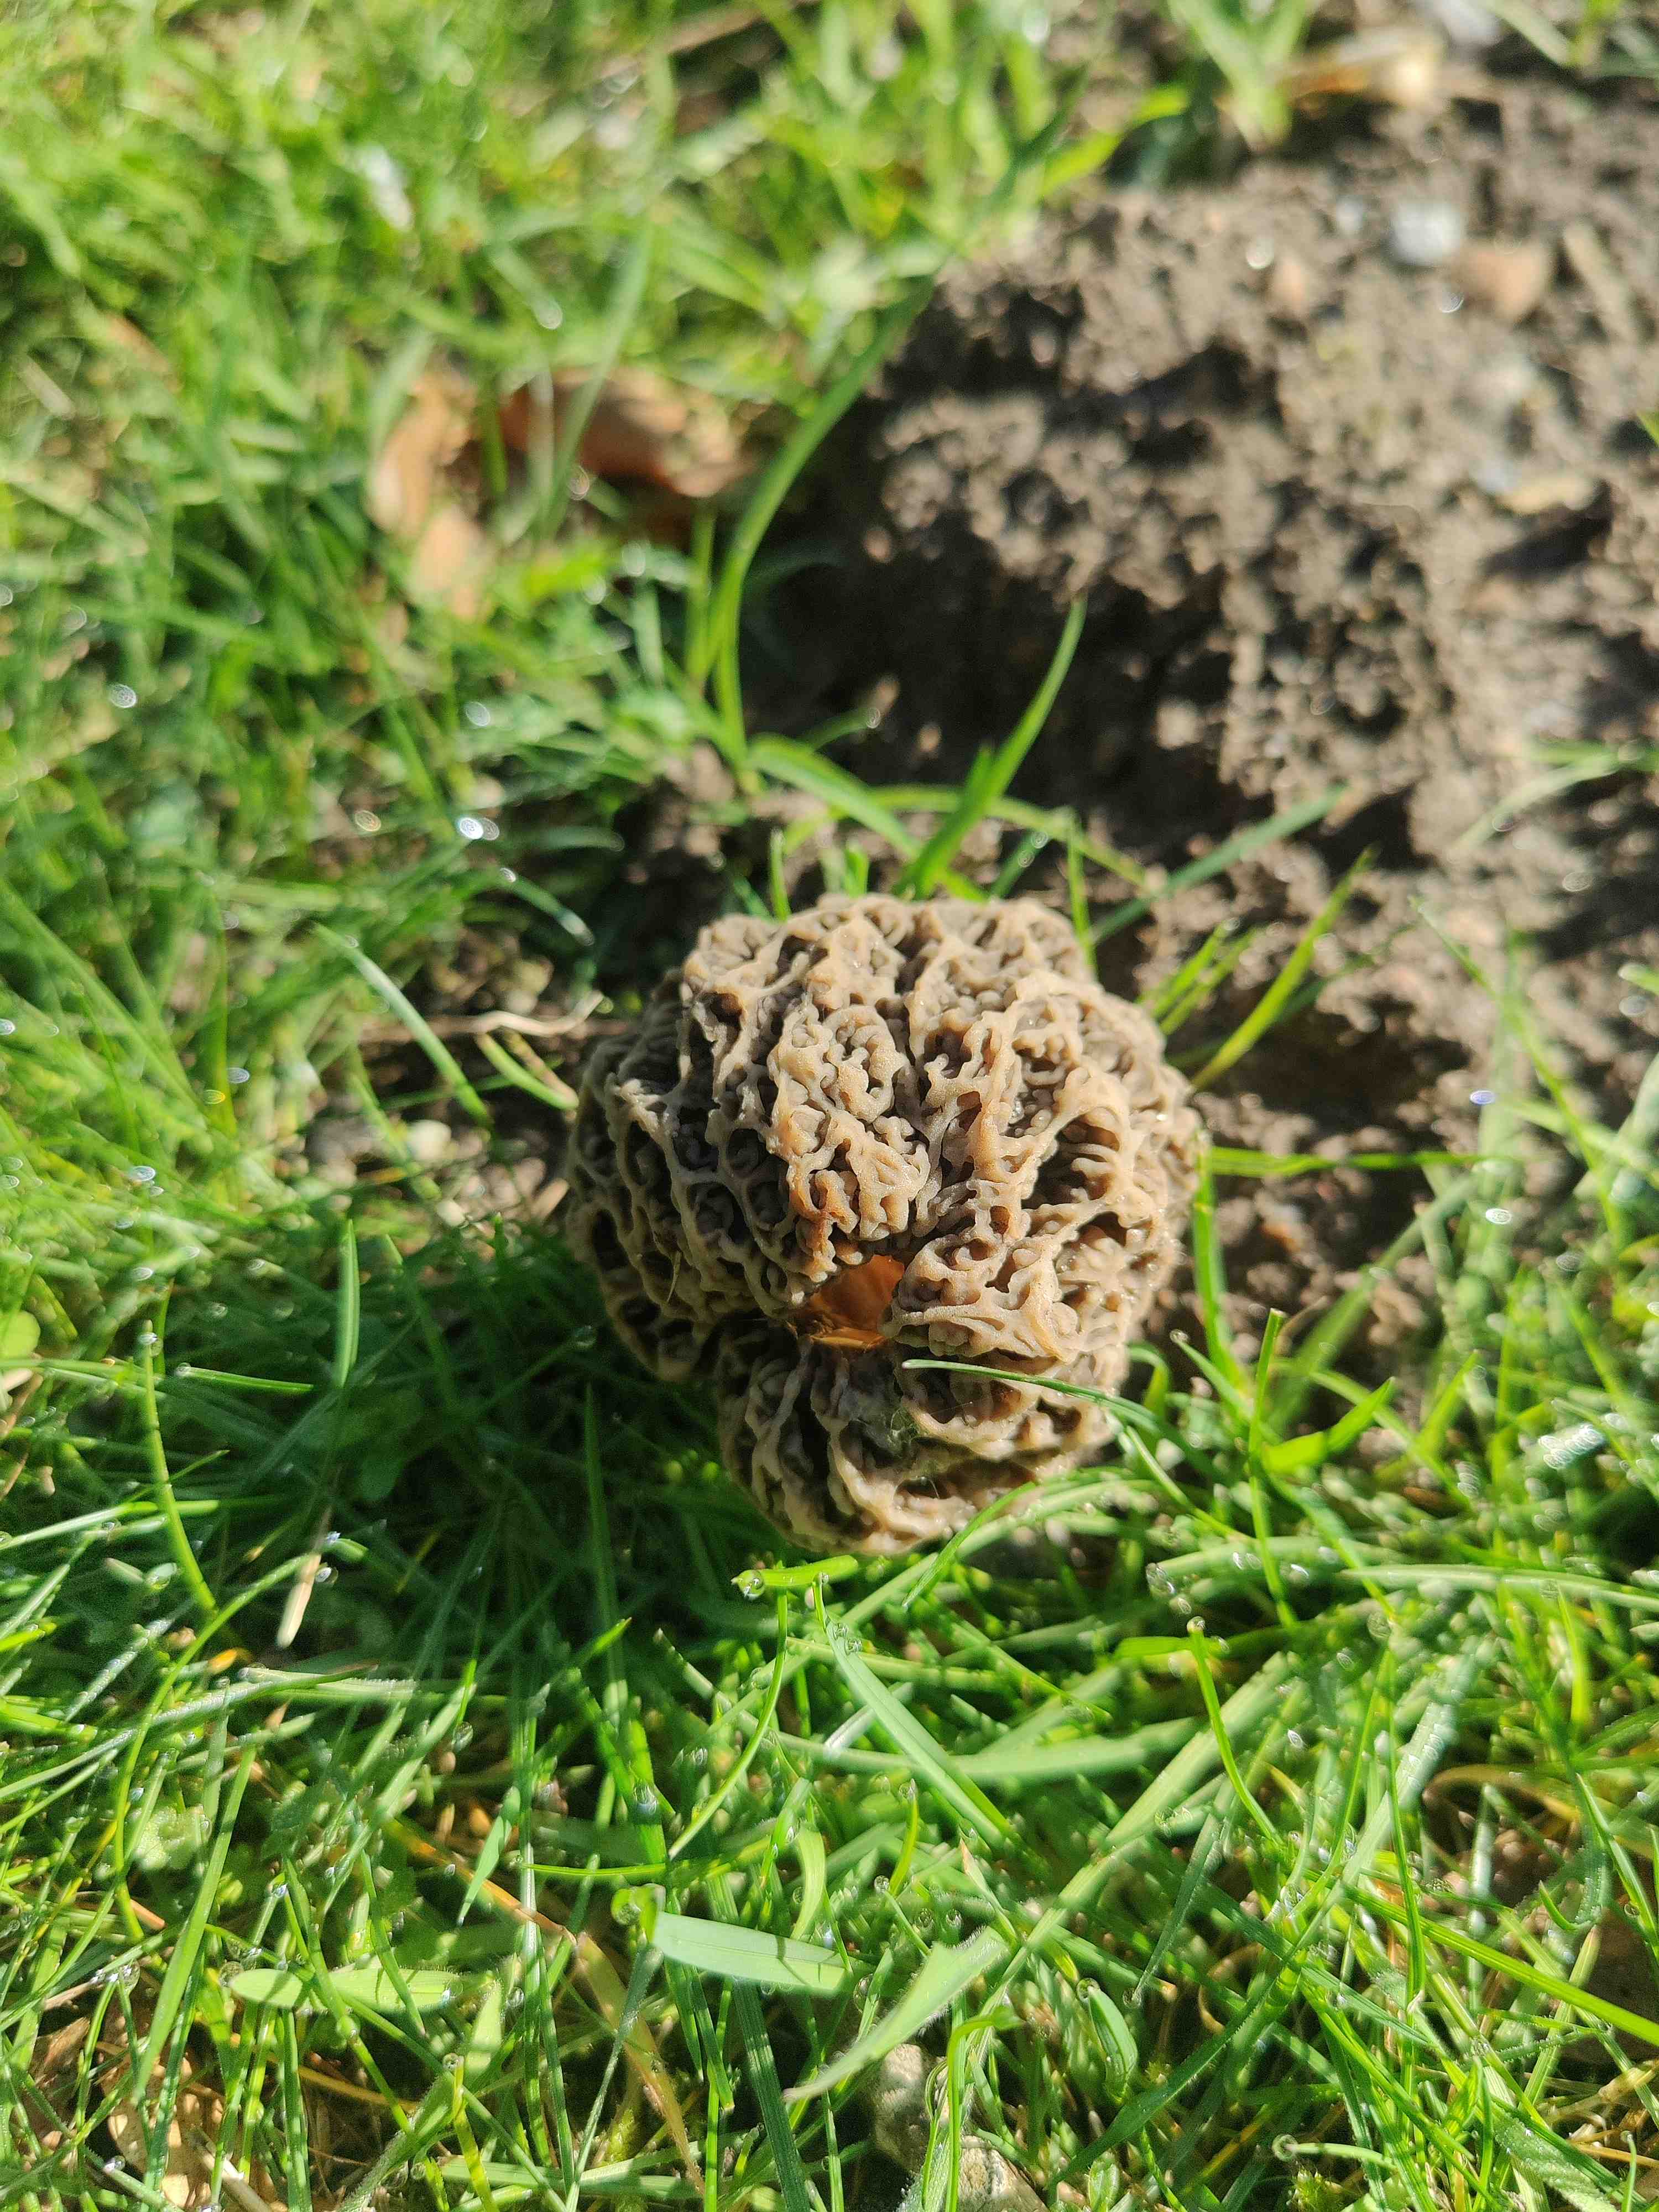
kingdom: Fungi
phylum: Ascomycota
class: Pezizomycetes
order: Pezizales
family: Morchellaceae
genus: Morchella
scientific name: Morchella esculenta
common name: almindelig morkel
